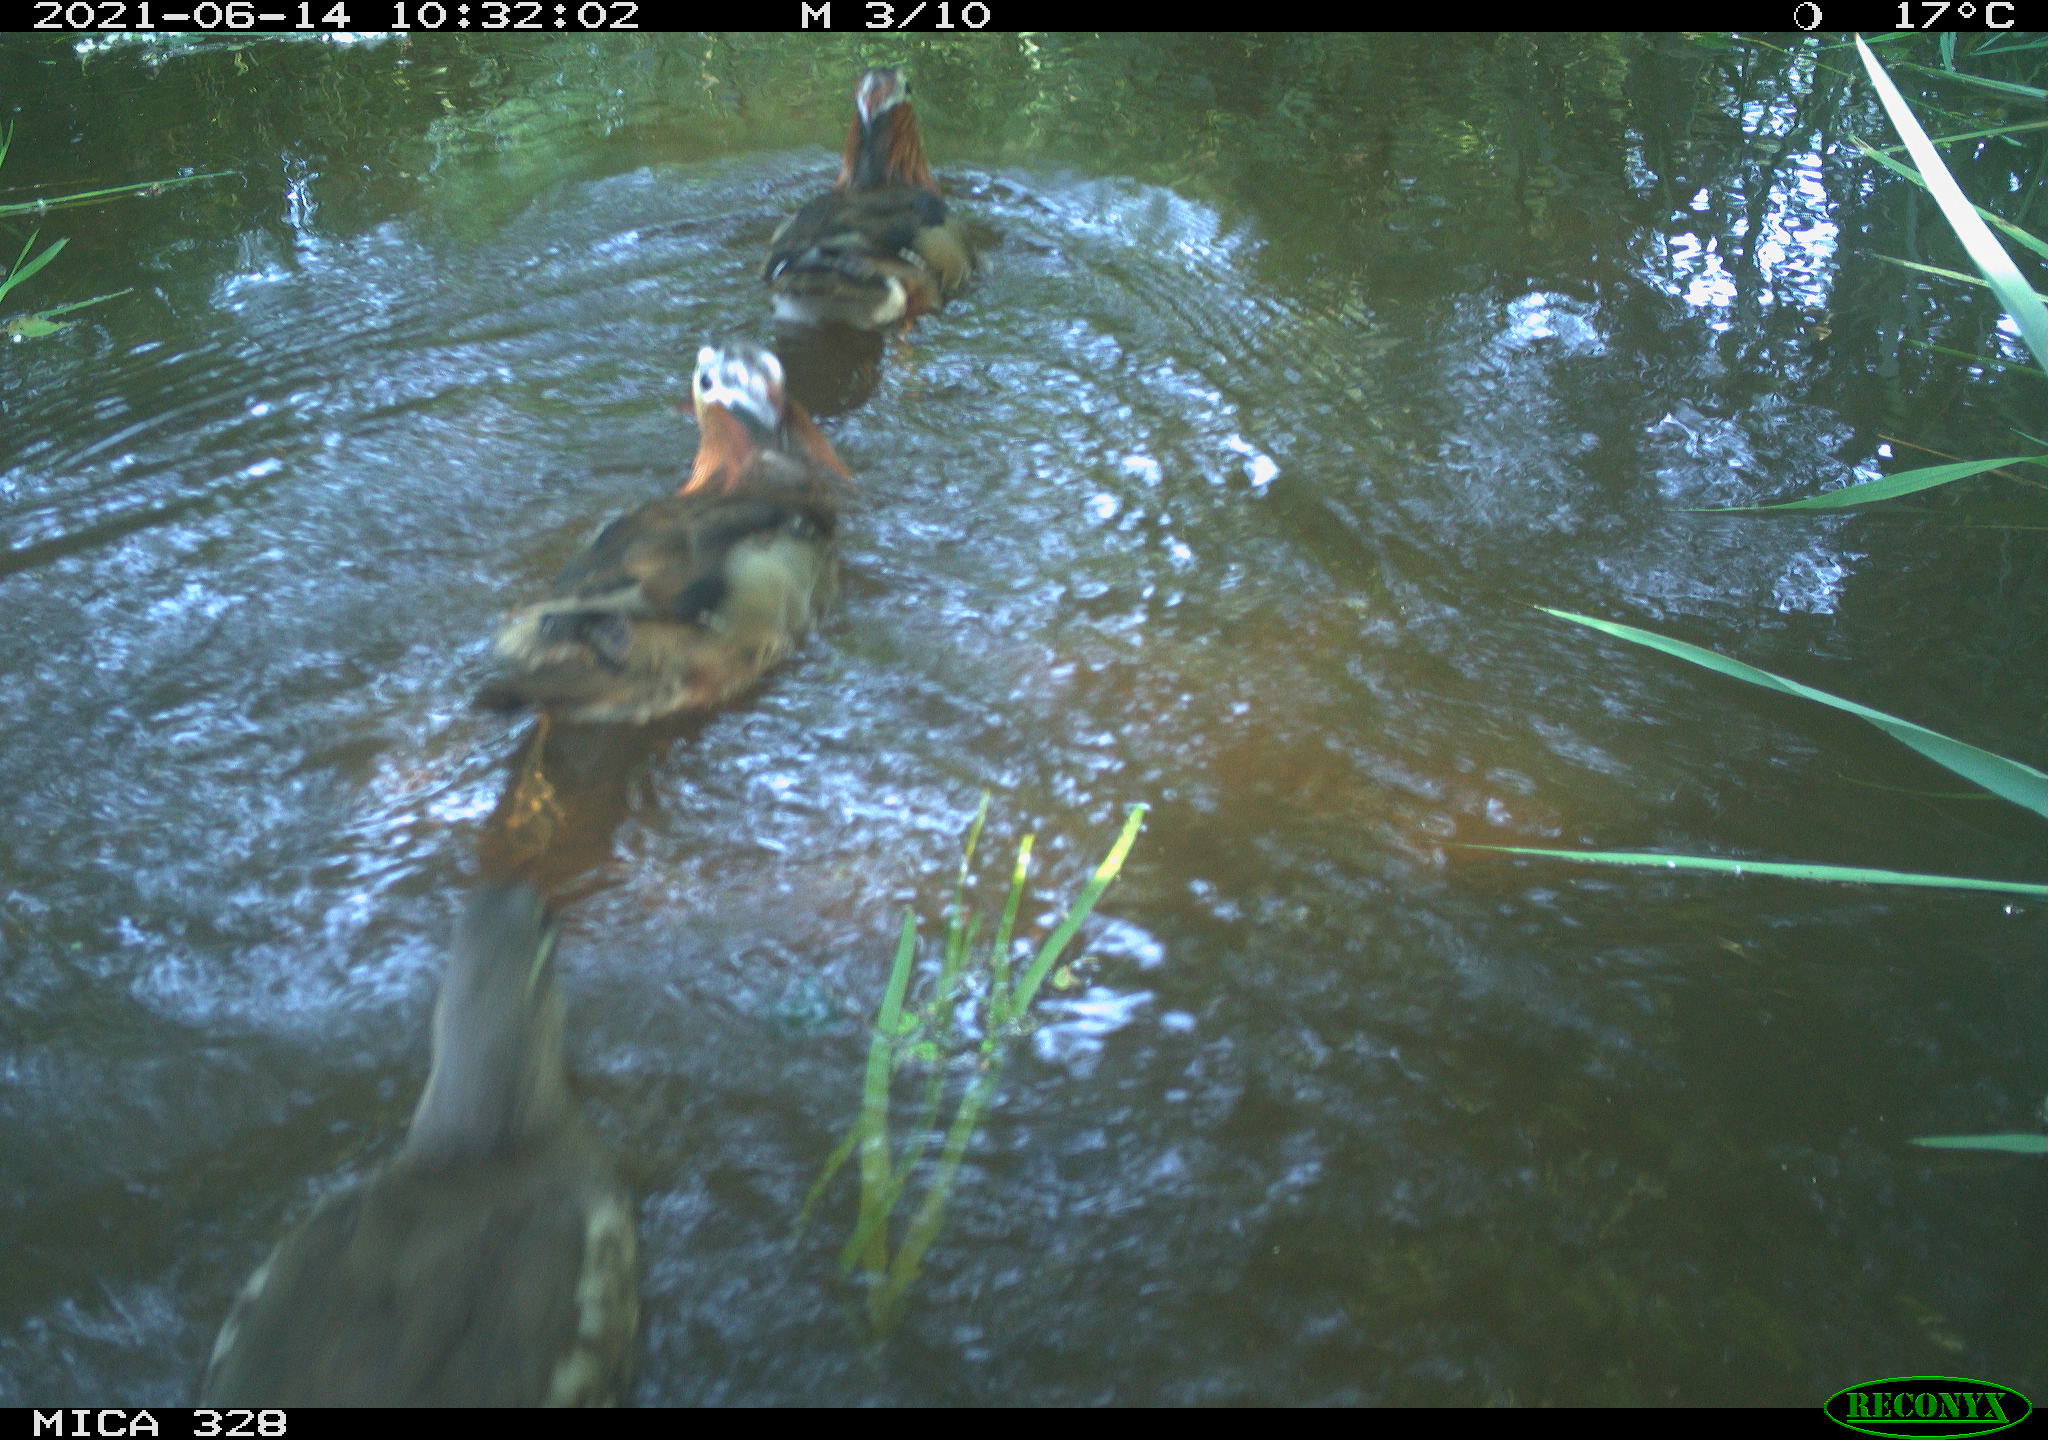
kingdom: Animalia
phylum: Chordata
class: Aves
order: Anseriformes
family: Anatidae
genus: Aix
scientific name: Aix galericulata
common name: Mandarin duck
